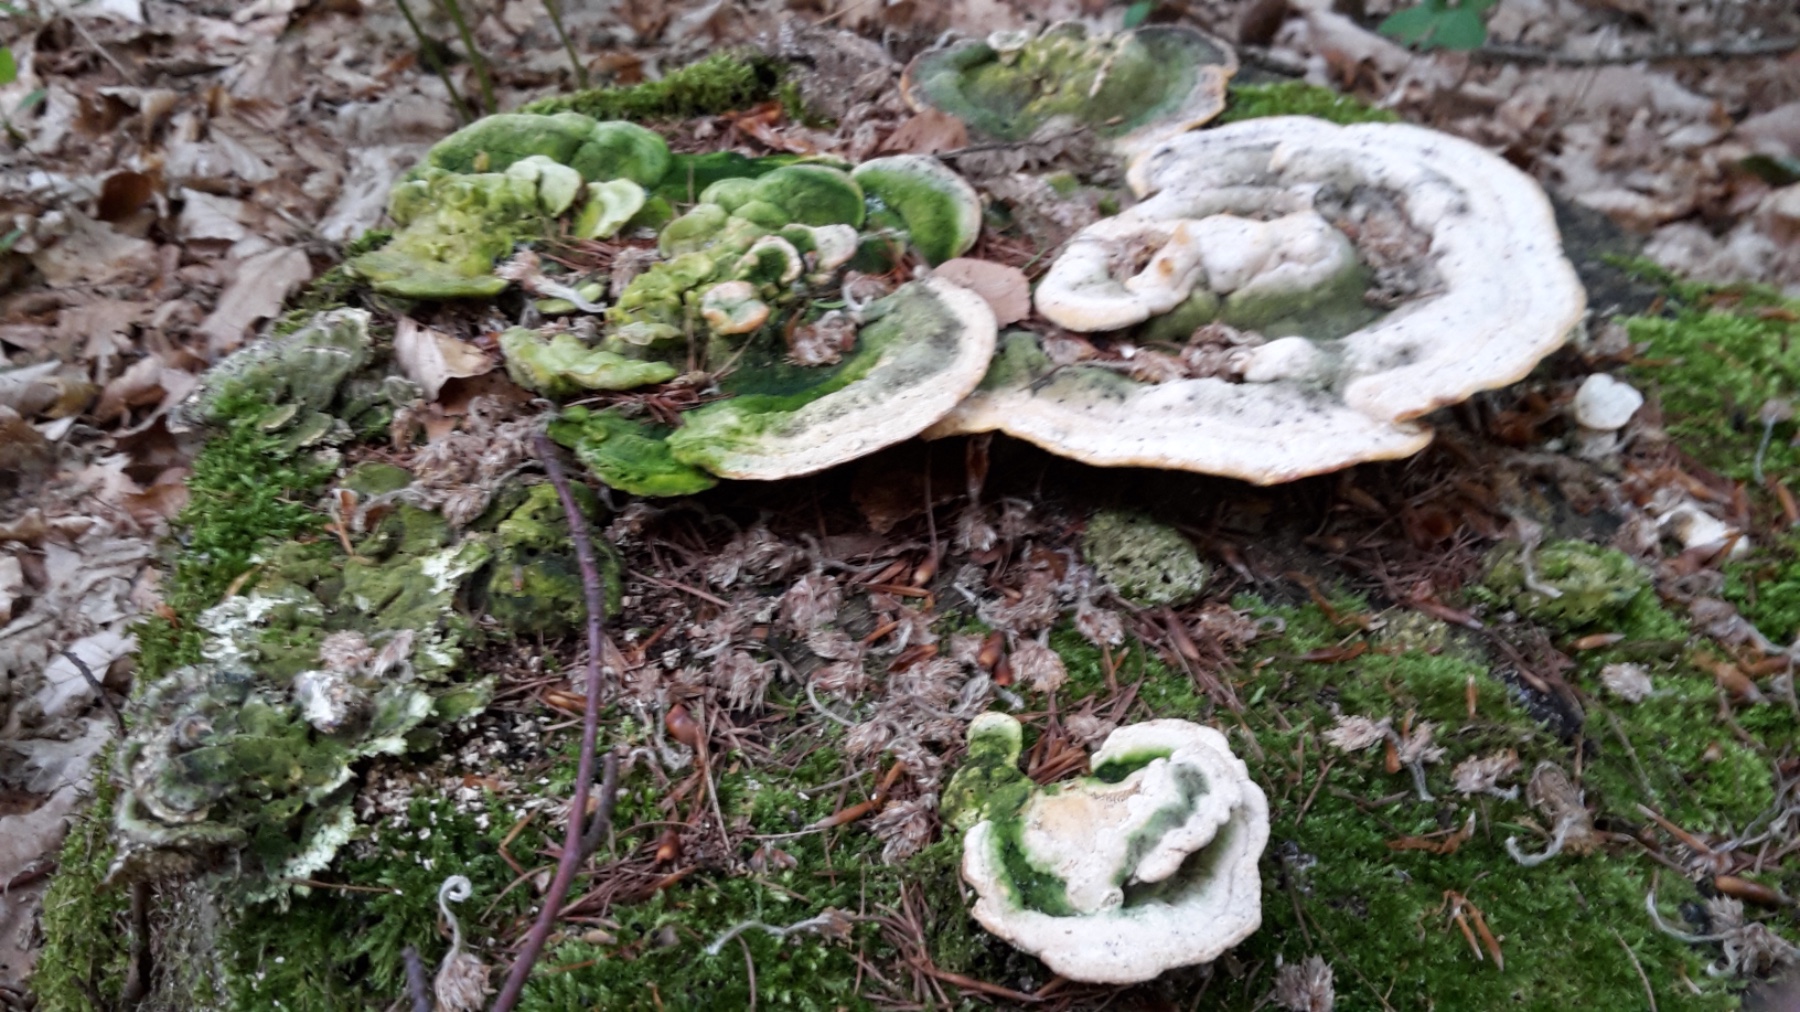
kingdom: Fungi
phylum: Basidiomycota
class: Agaricomycetes
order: Polyporales
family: Polyporaceae
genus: Trametes
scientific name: Trametes gibbosa
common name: puklet læderporesvamp
